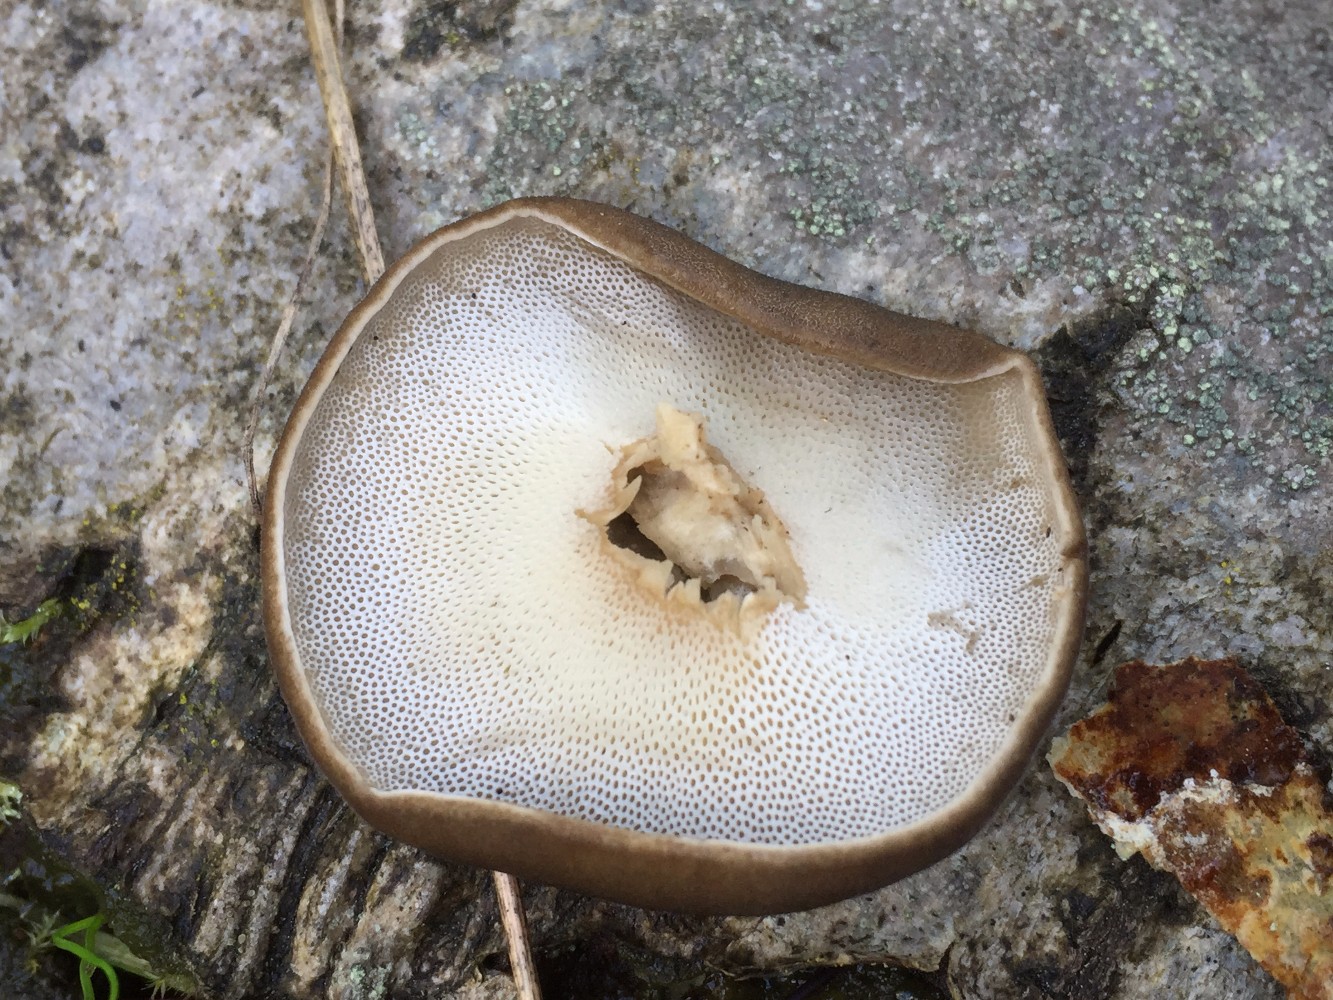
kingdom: Fungi
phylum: Basidiomycota
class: Agaricomycetes
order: Polyporales
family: Polyporaceae
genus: Lentinus
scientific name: Lentinus brumalis
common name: vinter-stilkporesvamp
